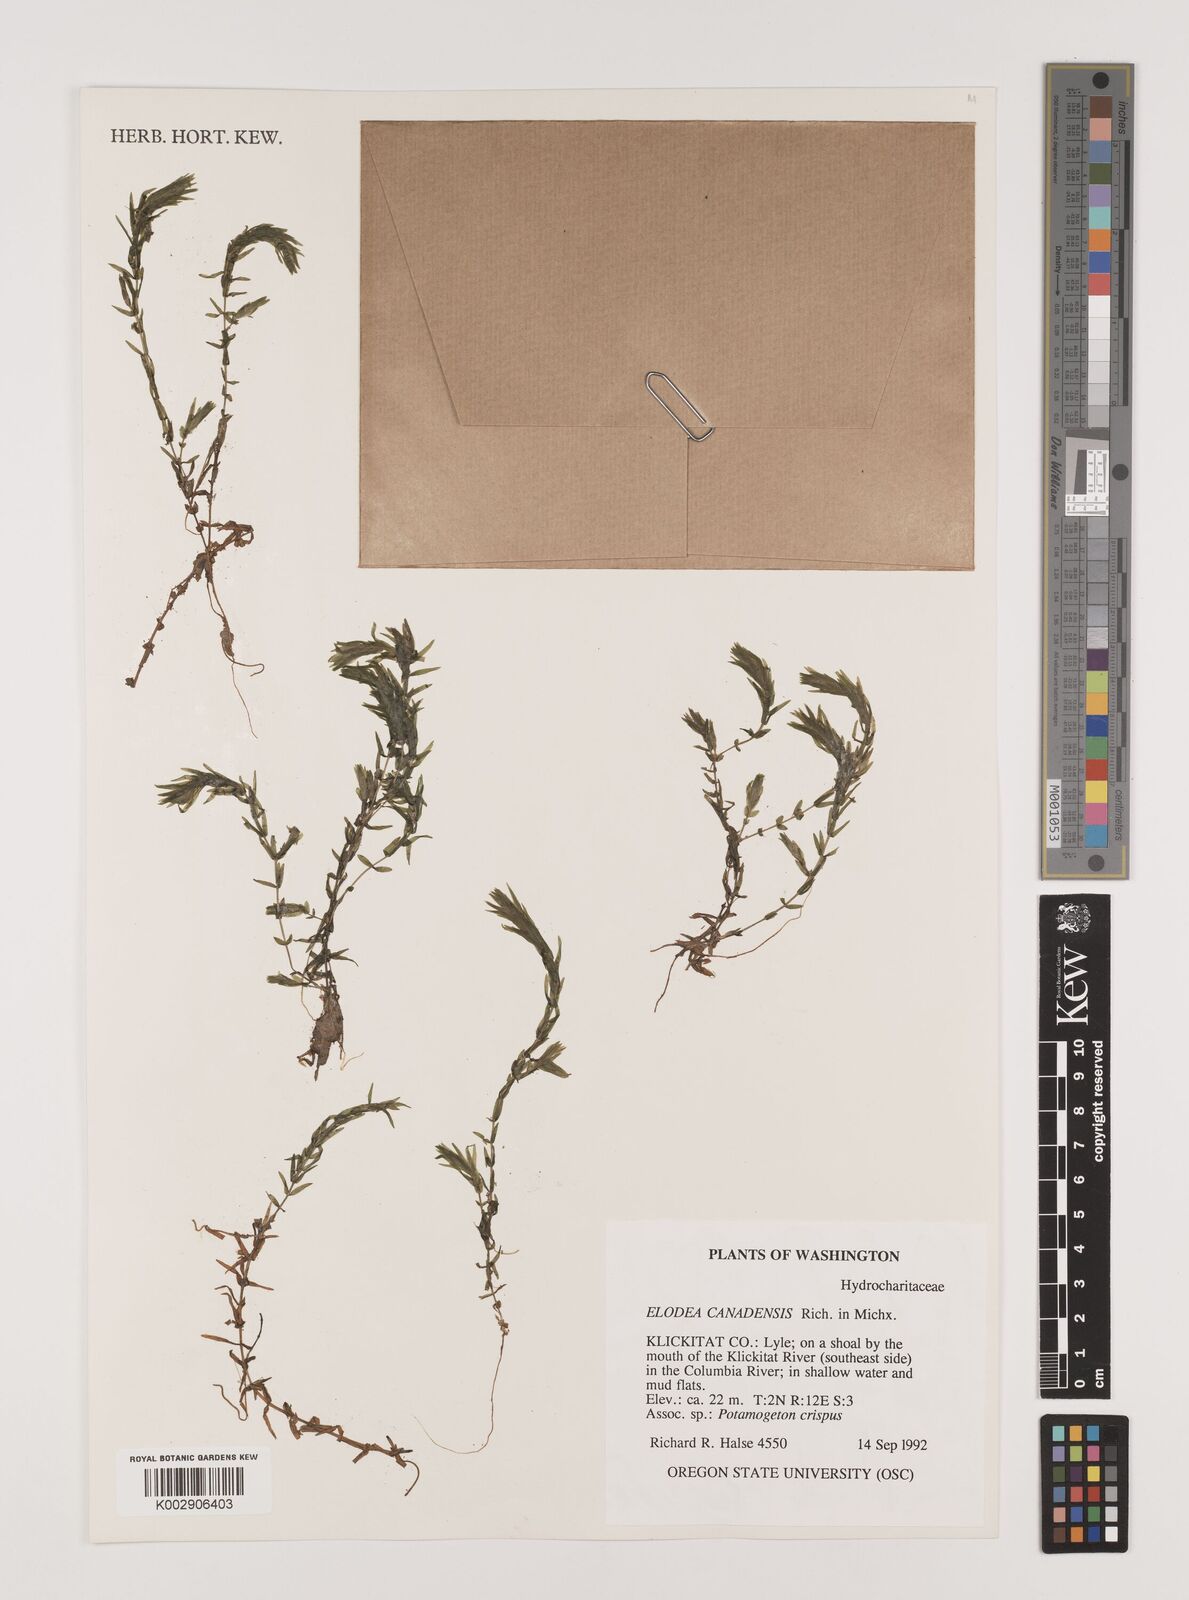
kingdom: Plantae
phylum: Tracheophyta
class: Liliopsida
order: Alismatales
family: Hydrocharitaceae
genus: Elodea
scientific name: Elodea canadensis
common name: Canadian waterweed
